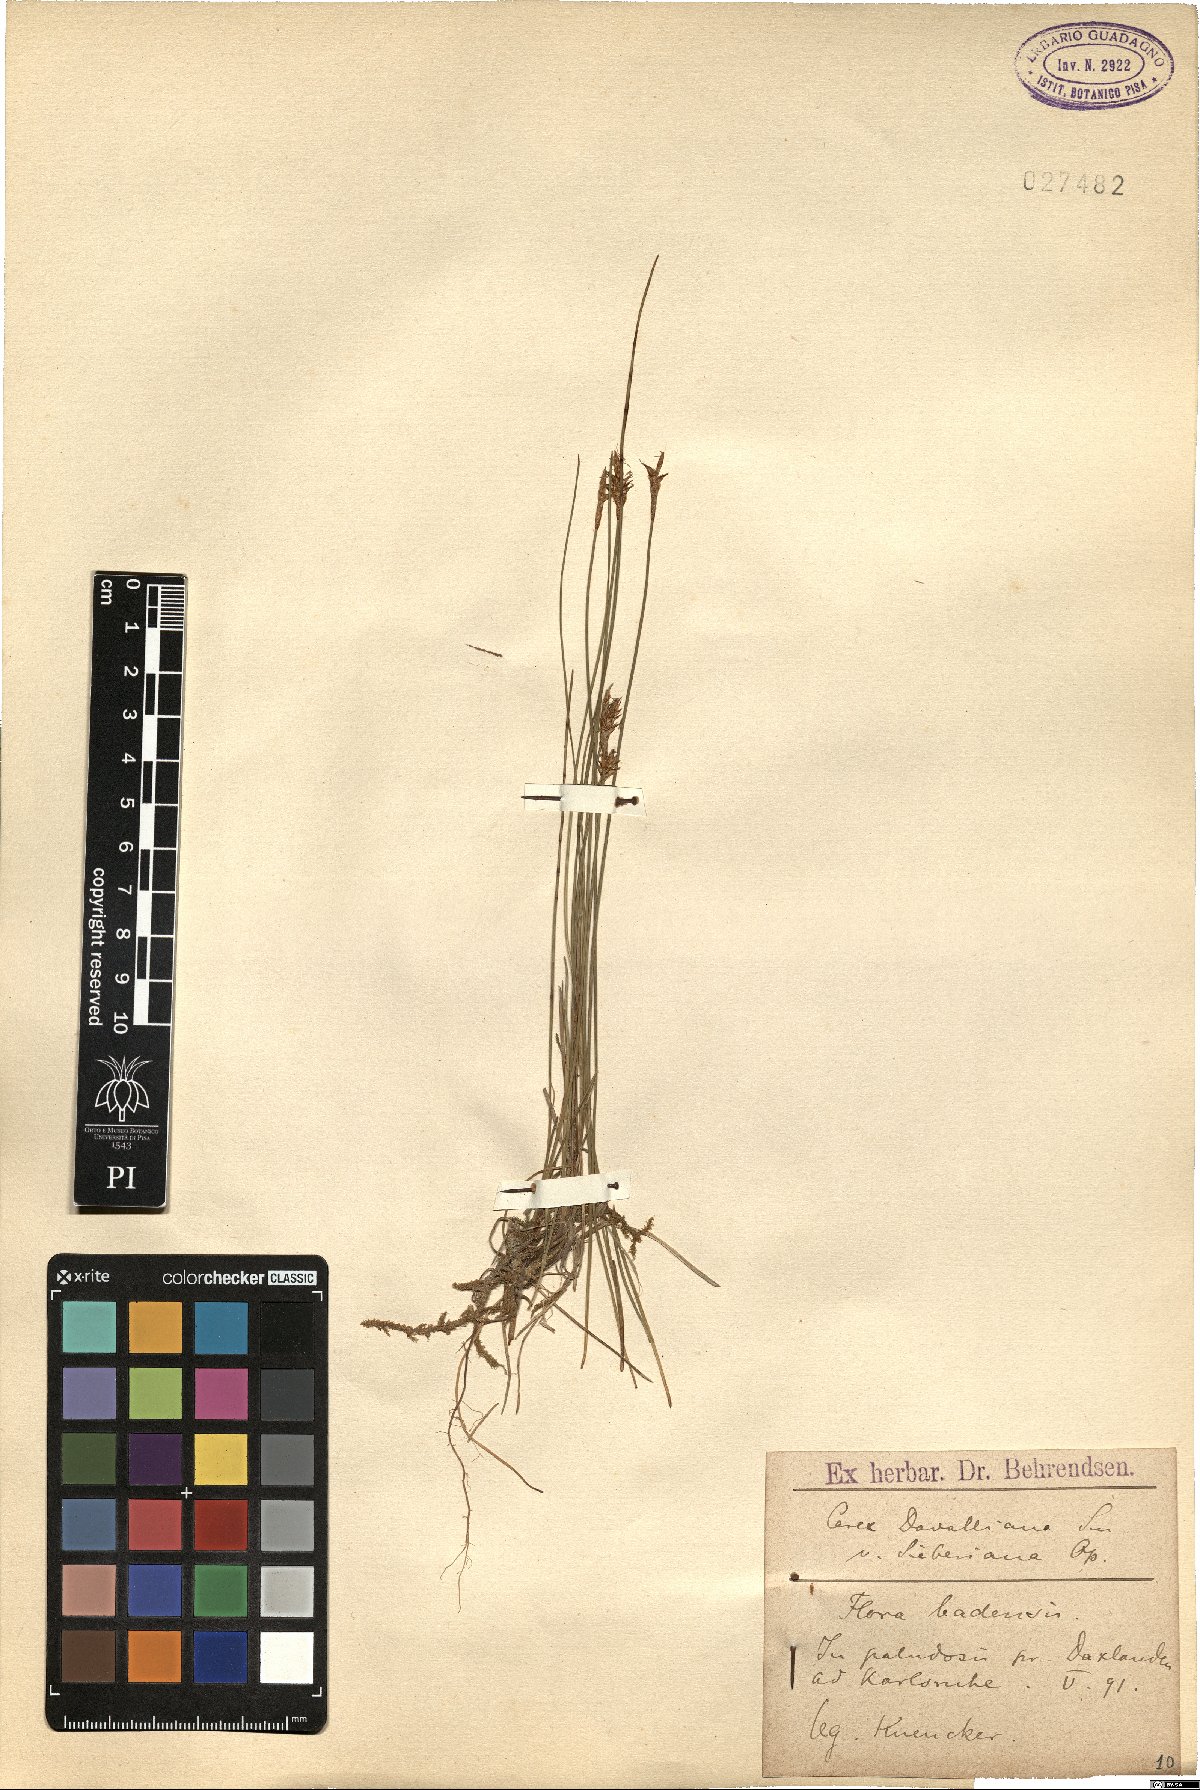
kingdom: Plantae
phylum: Tracheophyta
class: Liliopsida
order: Poales
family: Cyperaceae
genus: Carex
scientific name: Carex davalliana
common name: Davall's sedge
